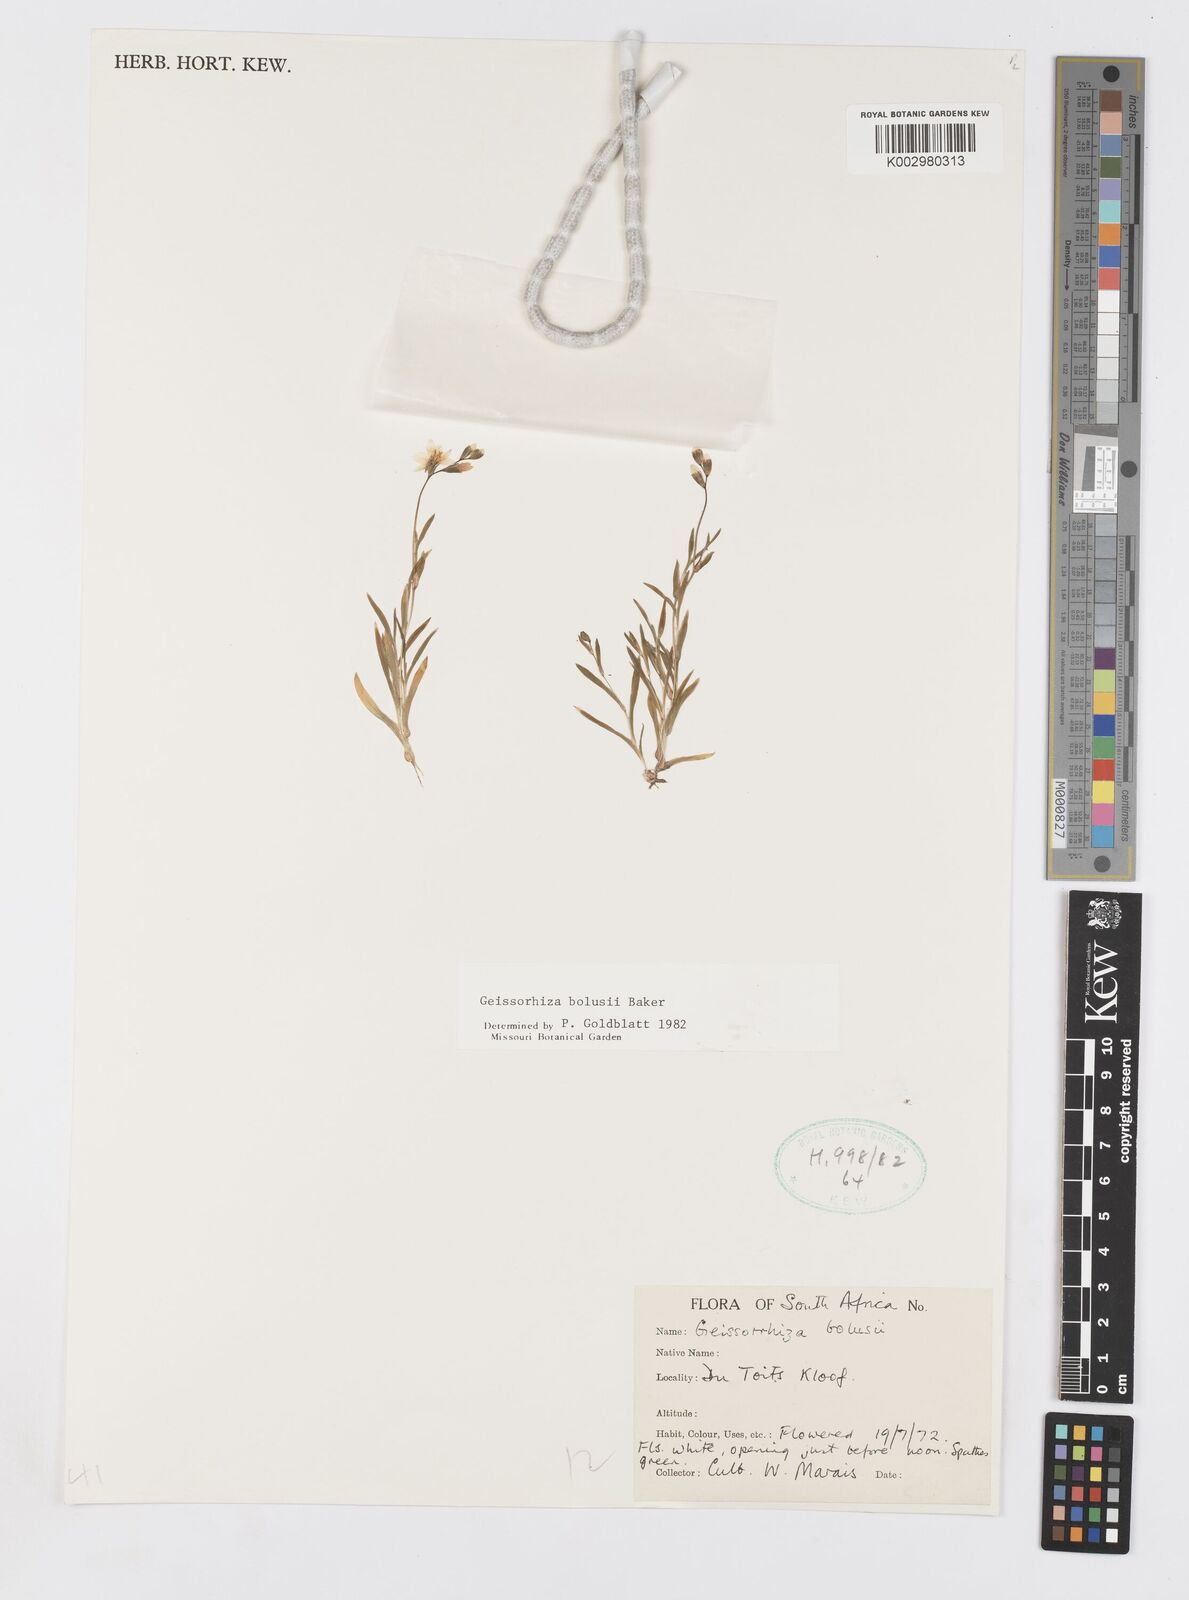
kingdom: Plantae
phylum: Tracheophyta
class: Liliopsida
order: Asparagales
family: Iridaceae
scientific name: Iridaceae
